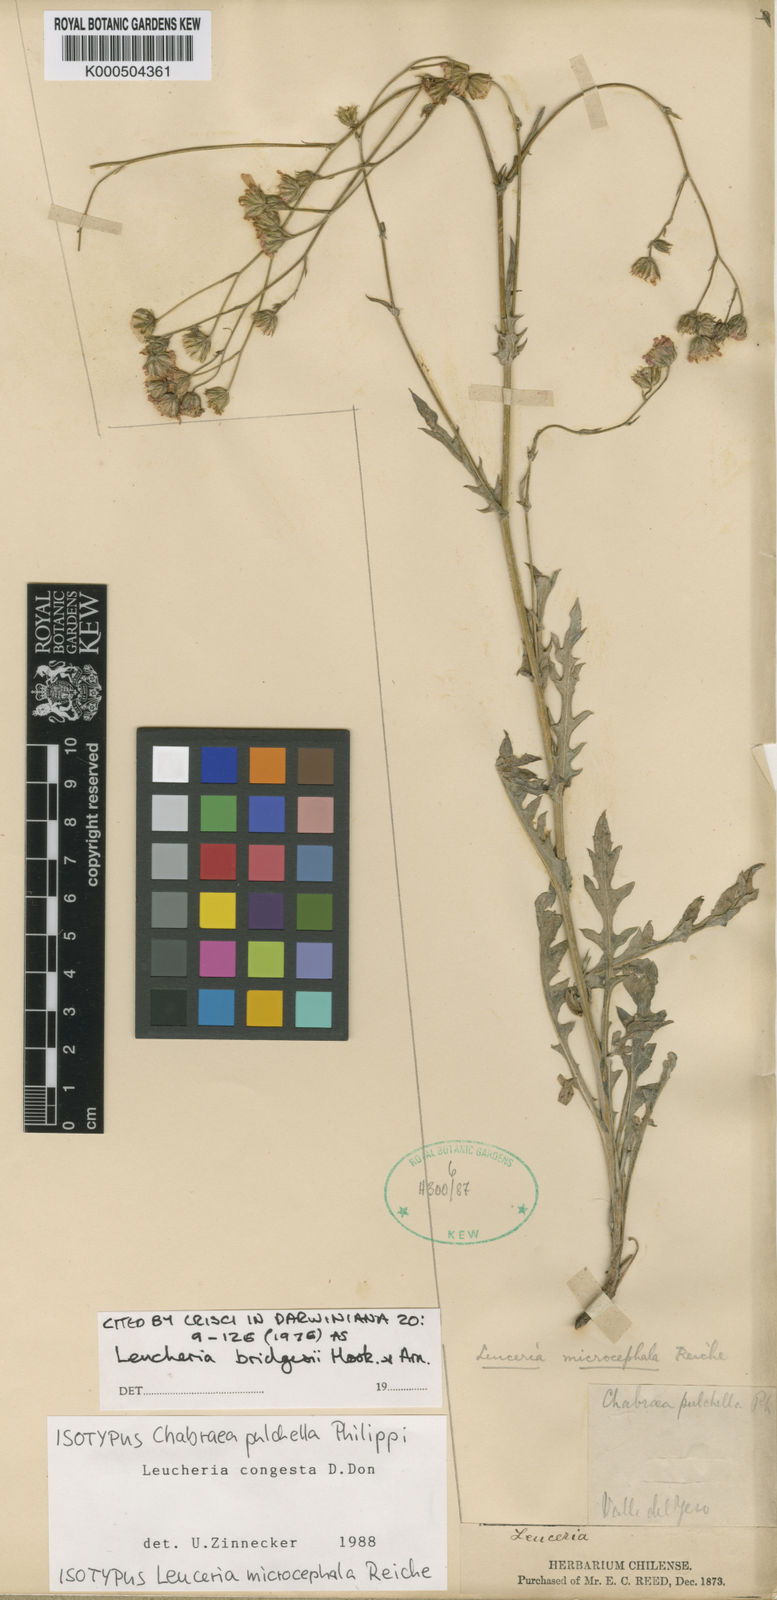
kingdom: Plantae
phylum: Tracheophyta
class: Magnoliopsida
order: Asterales
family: Asteraceae
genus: Leucheria
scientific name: Leucheria bridgesii
